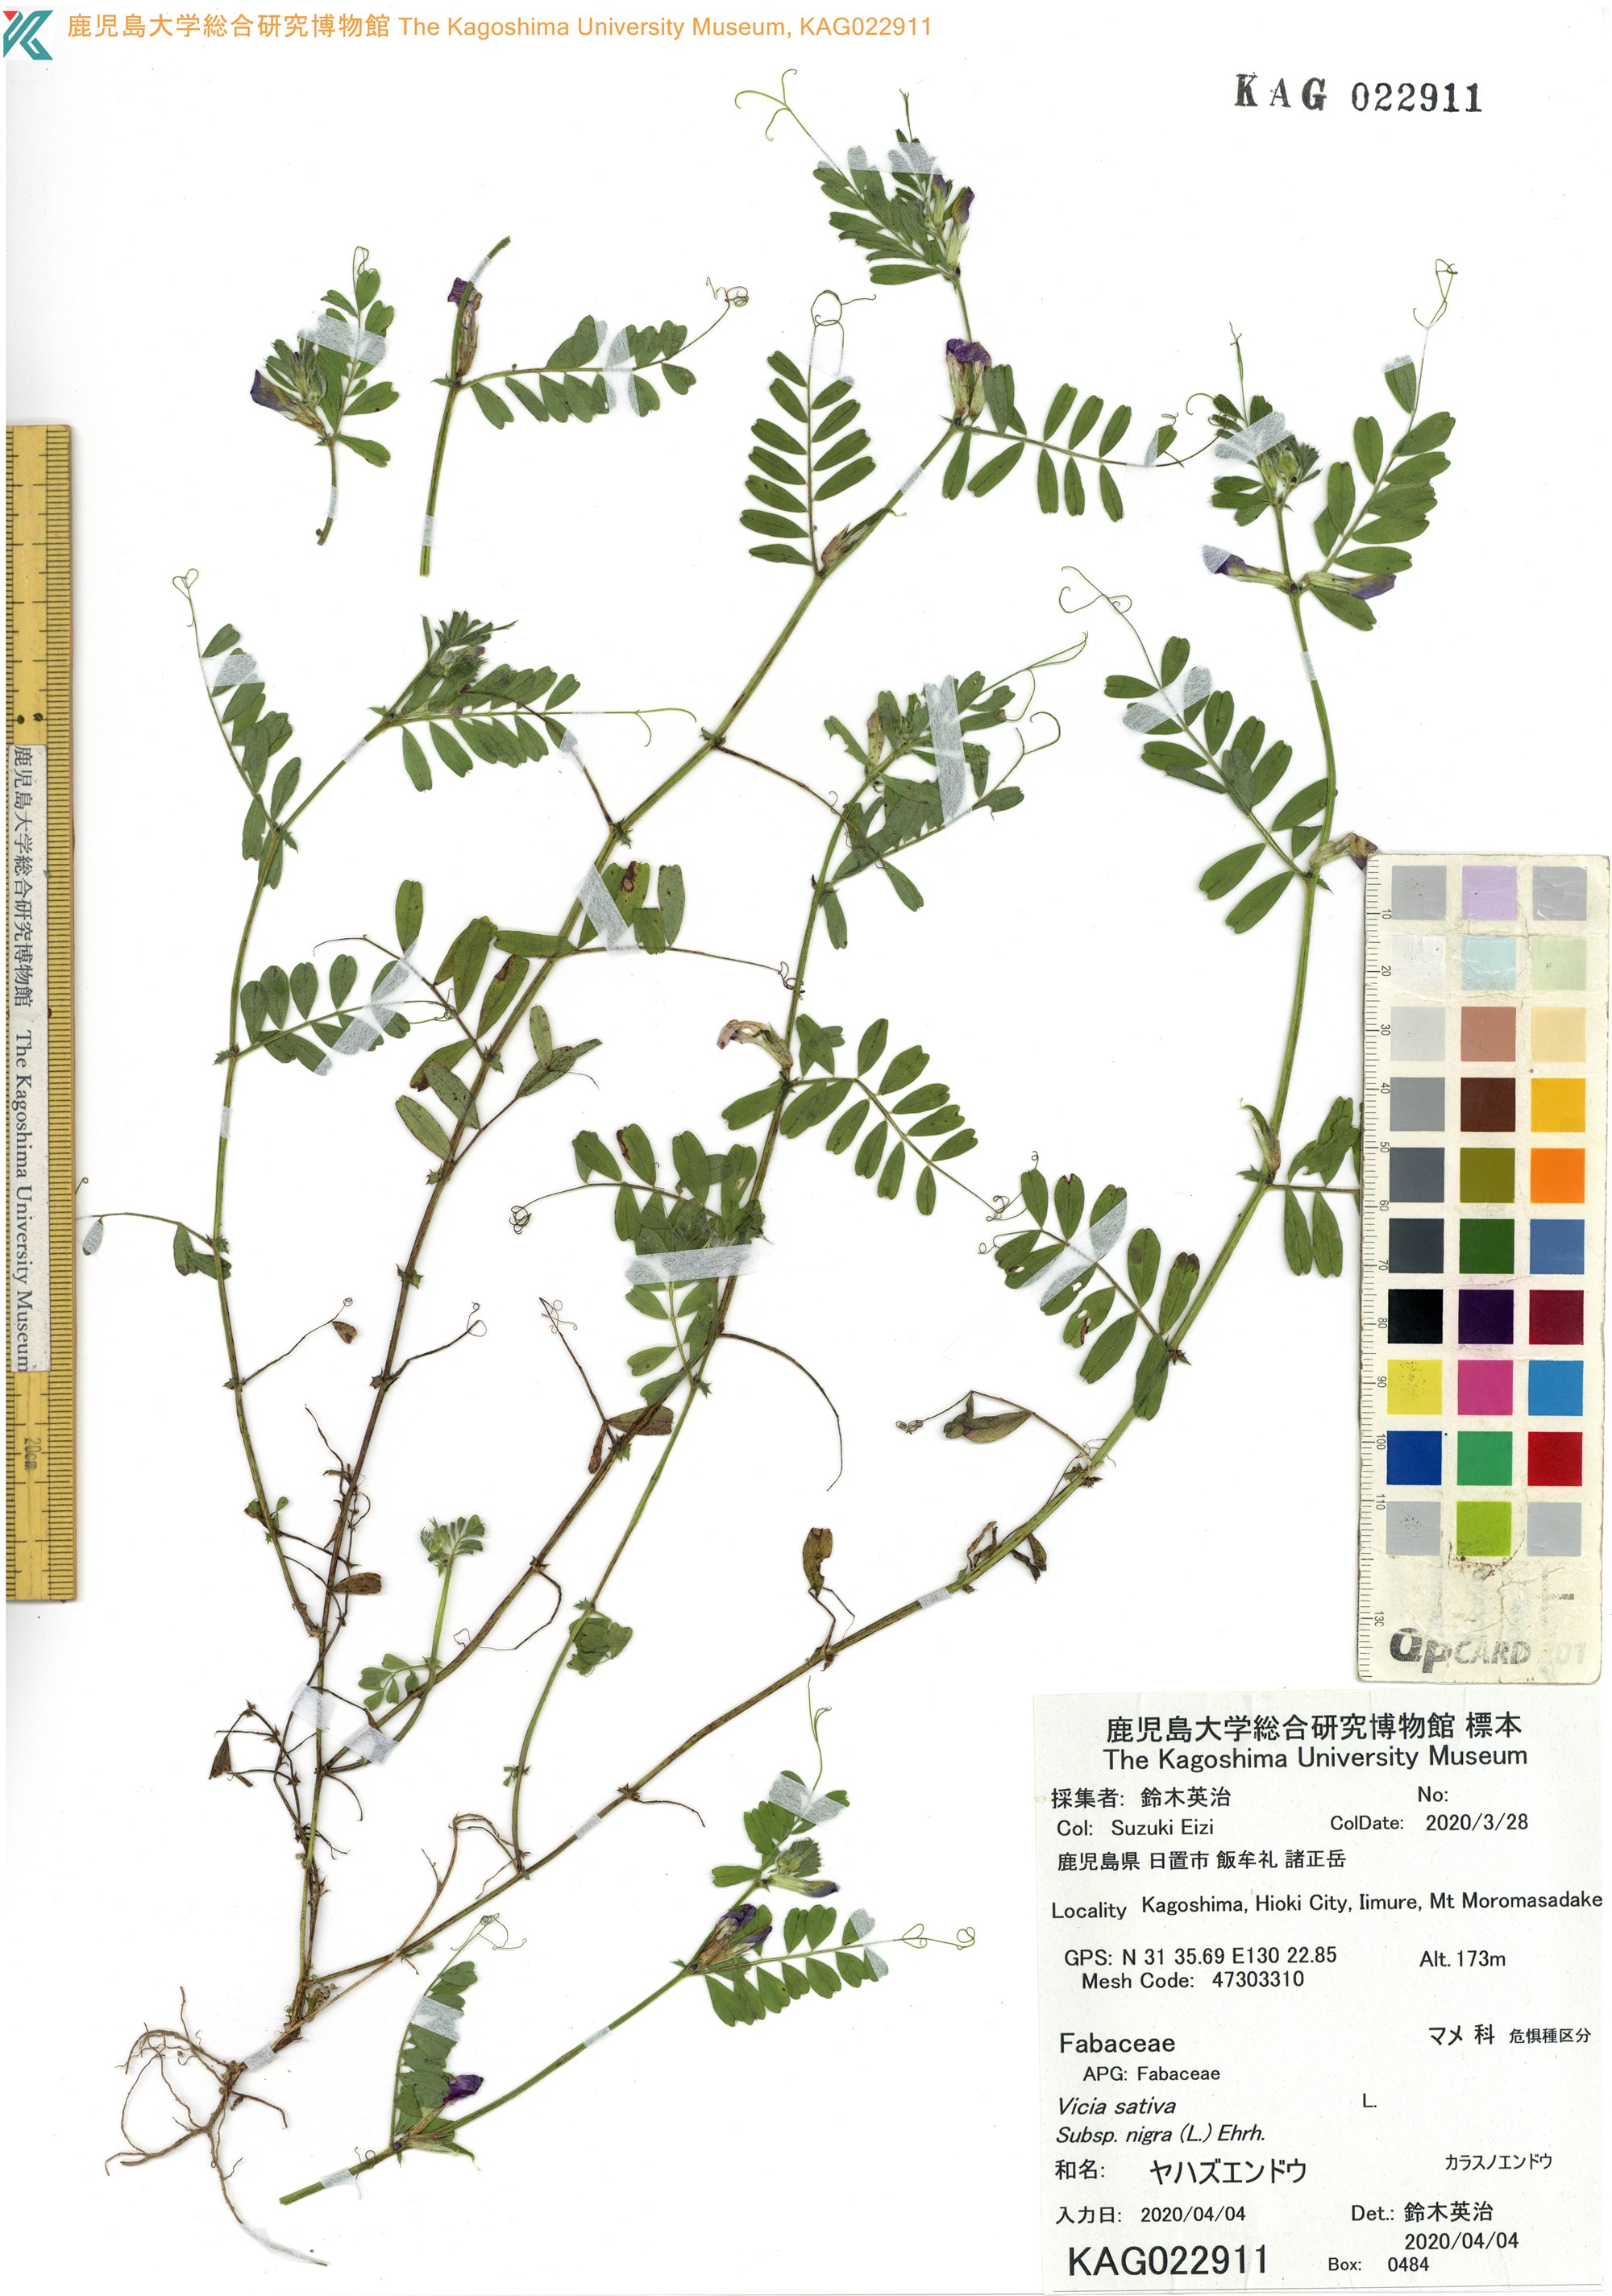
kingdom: Plantae
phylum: Tracheophyta
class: Magnoliopsida
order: Fabales
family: Fabaceae
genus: Vicia
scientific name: Vicia sativa
